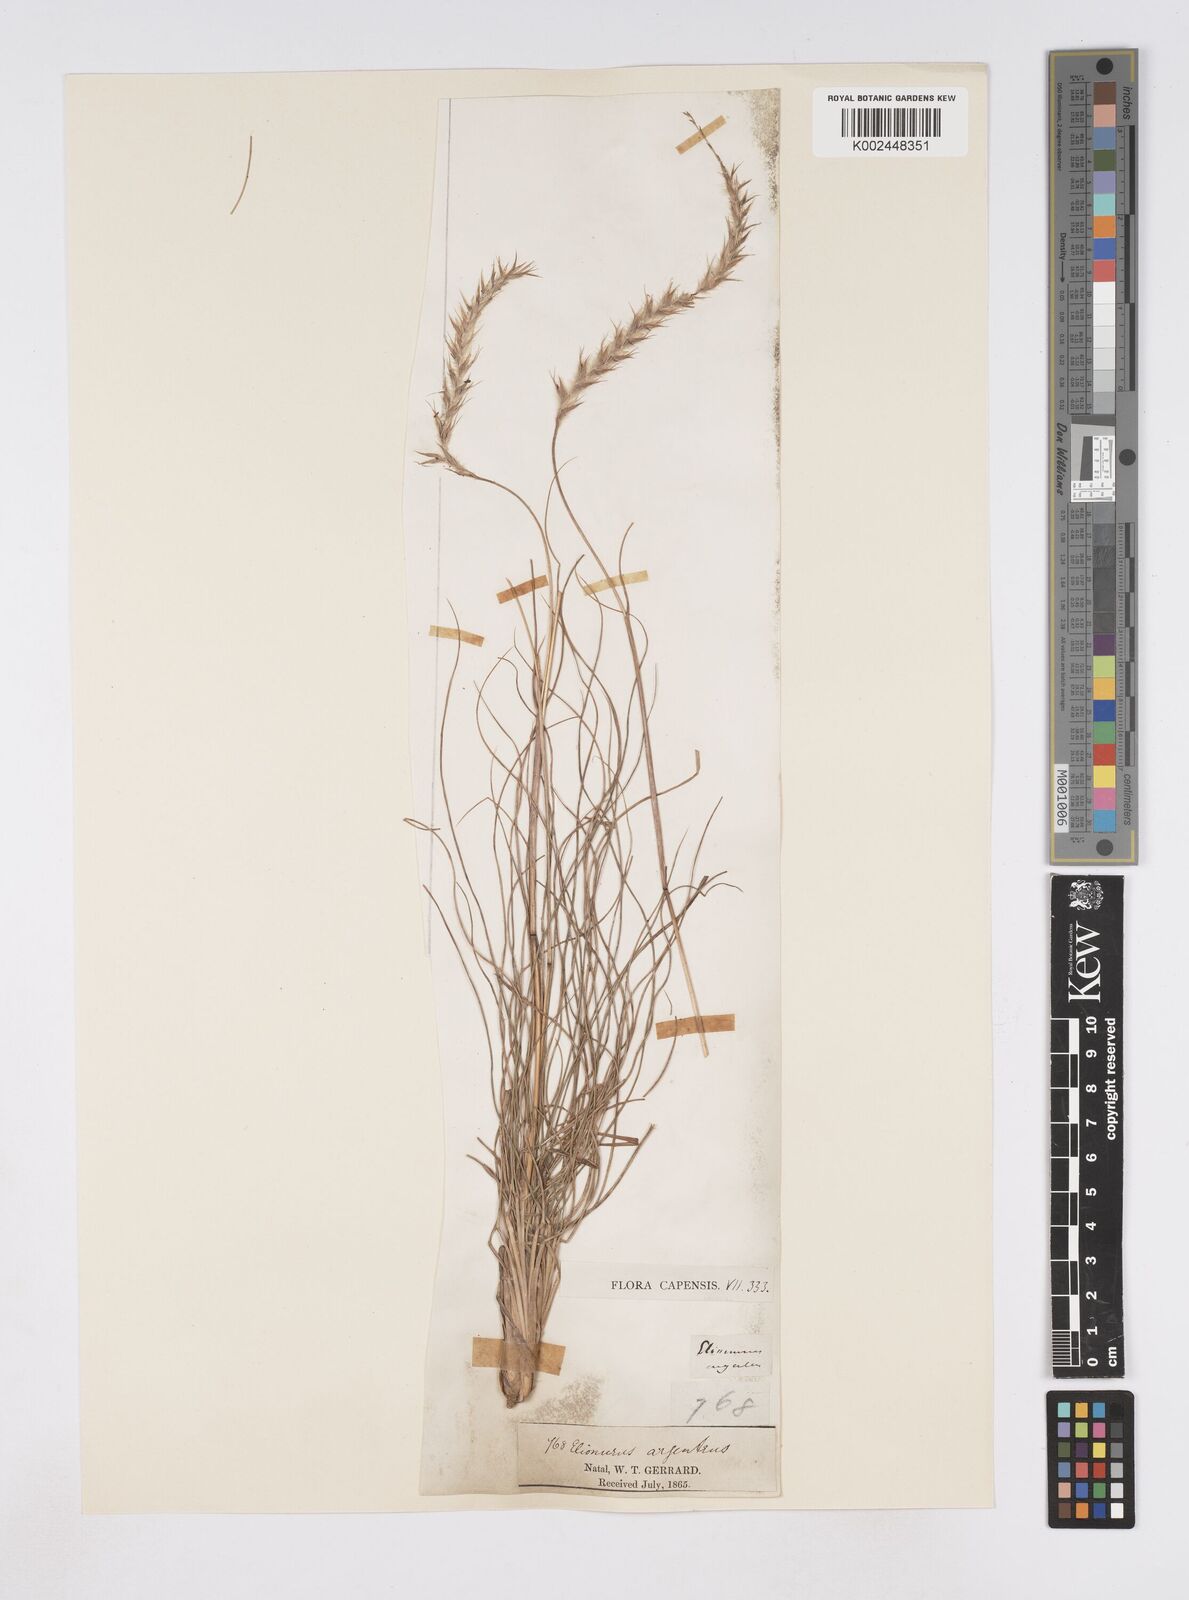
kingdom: Plantae
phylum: Tracheophyta
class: Liliopsida
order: Poales
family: Poaceae
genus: Elionurus
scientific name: Elionurus muticus
